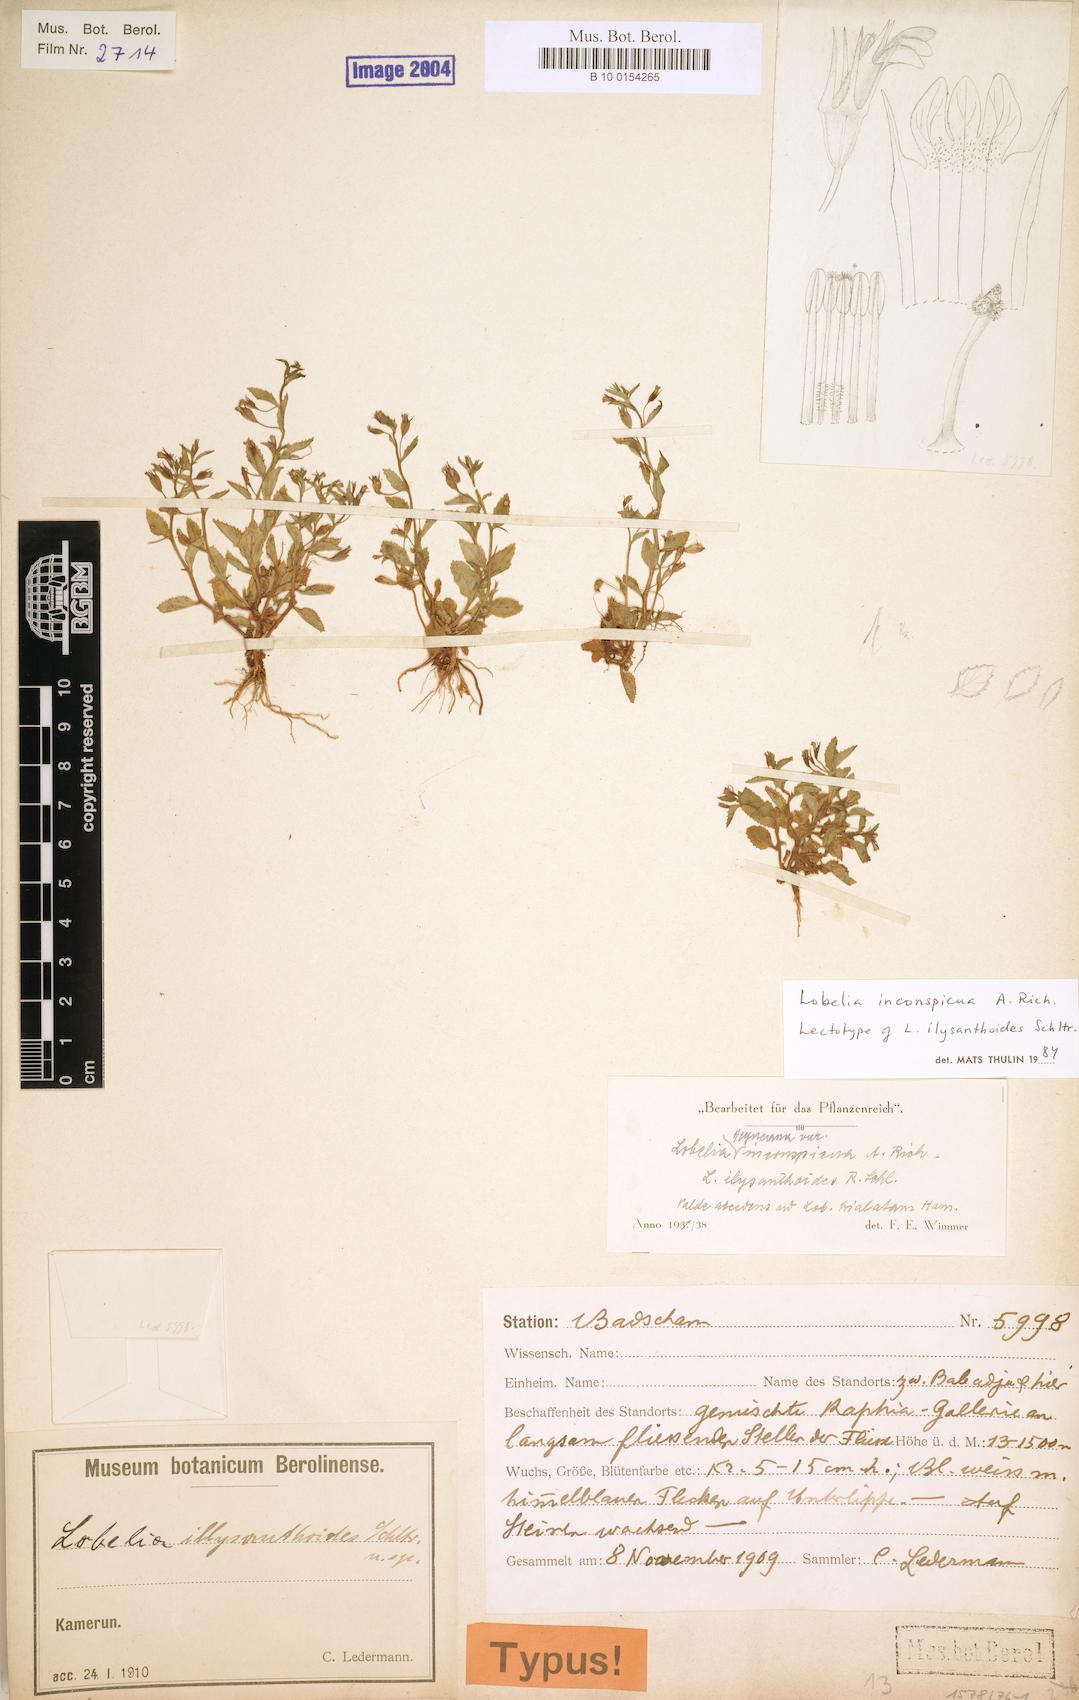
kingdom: Plantae
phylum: Tracheophyta
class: Magnoliopsida
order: Asterales
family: Campanulaceae
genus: Lobelia
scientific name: Lobelia inconspicua
